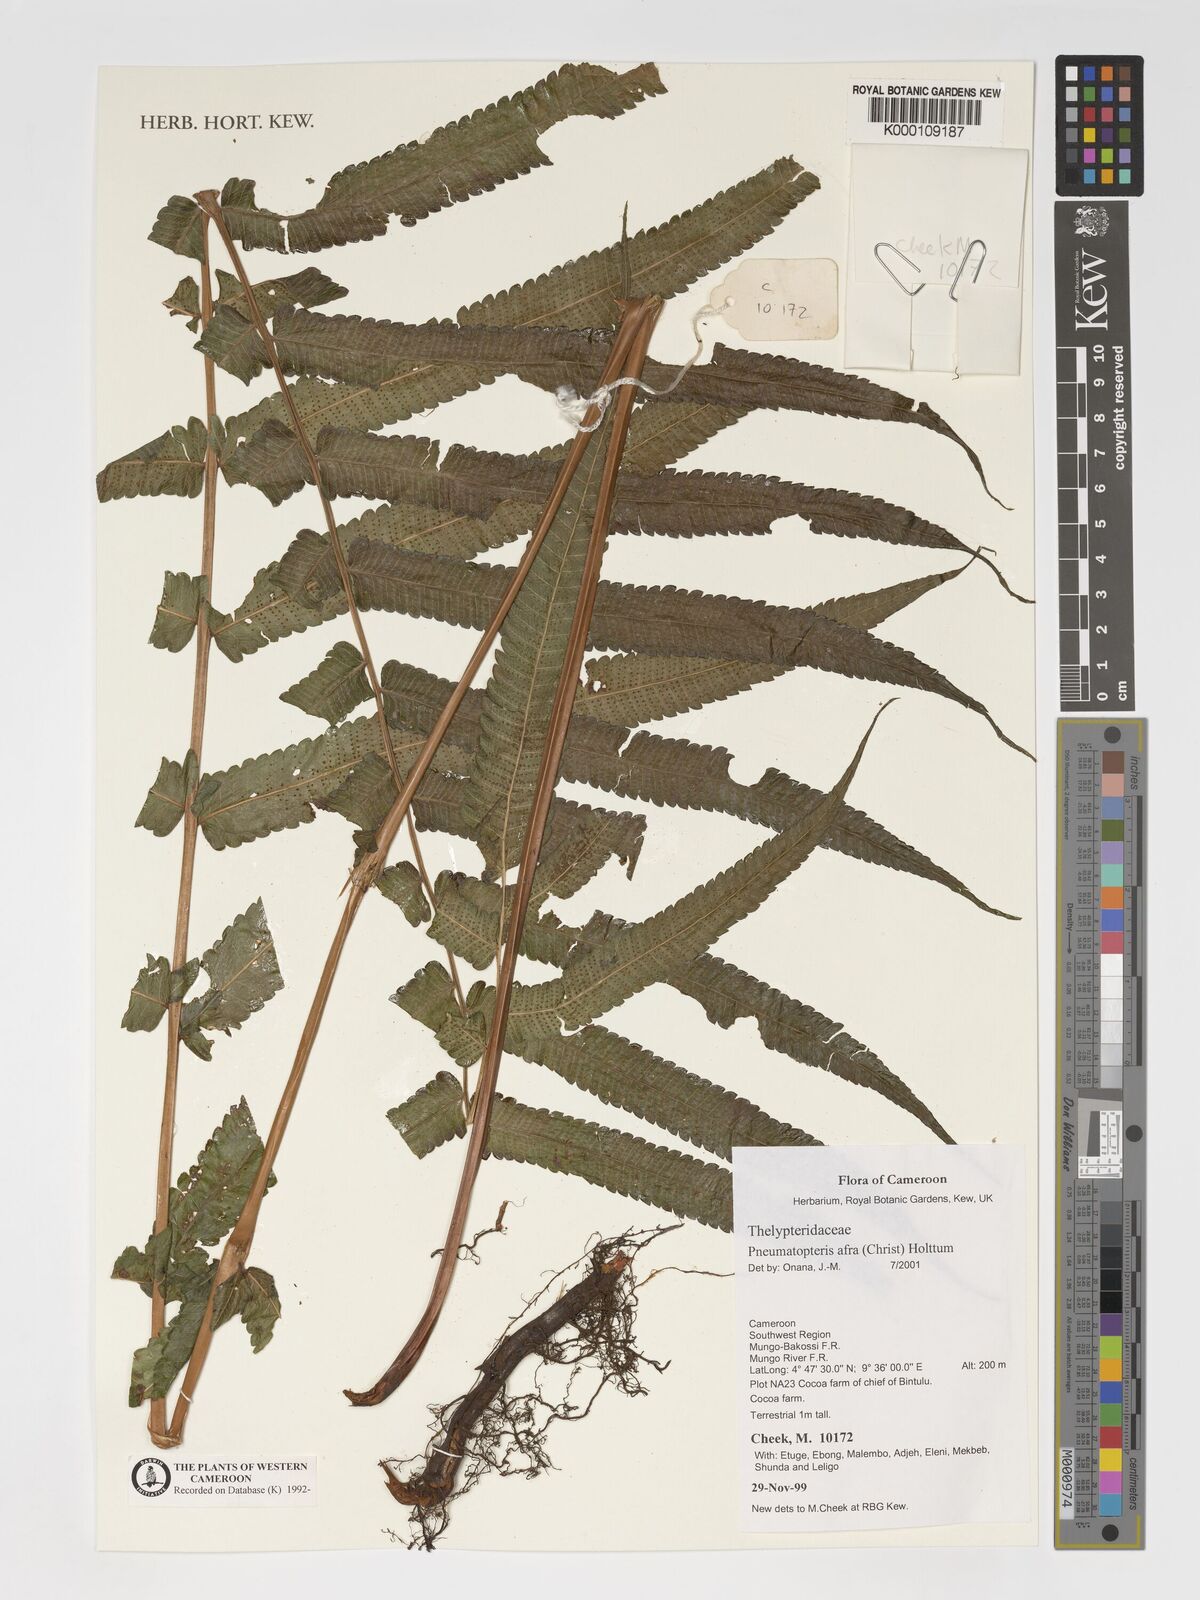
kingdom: Plantae
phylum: Tracheophyta
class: Polypodiopsida
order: Polypodiales
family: Thelypteridaceae
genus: Abacopteris
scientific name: Abacopteris afra
